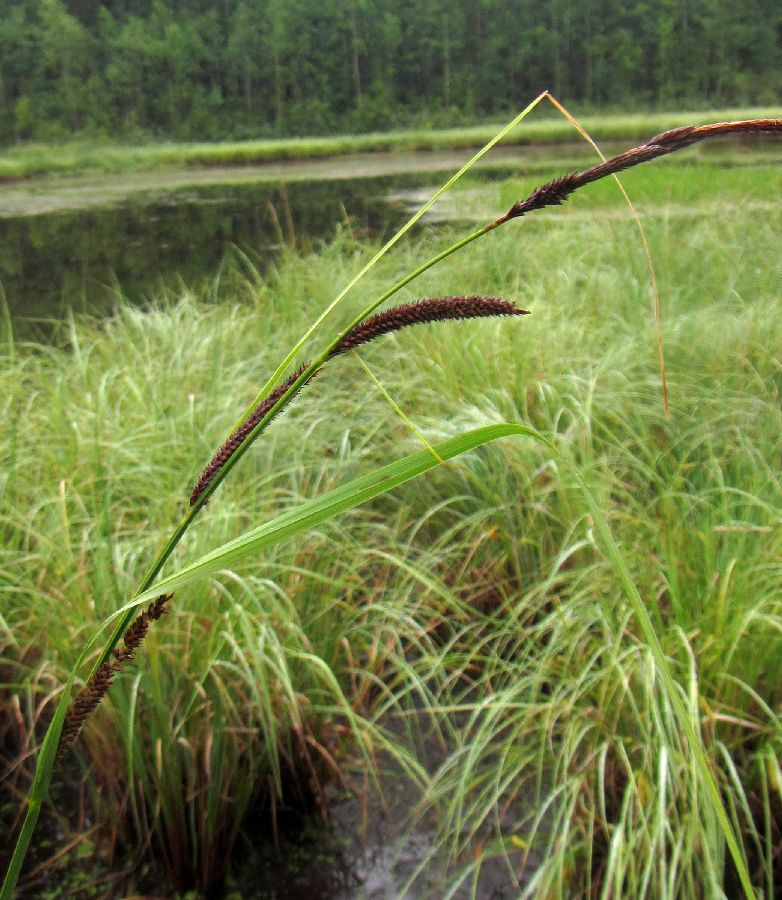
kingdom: Plantae
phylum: Tracheophyta
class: Liliopsida
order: Poales
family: Cyperaceae
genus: Carex
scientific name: Carex acuta
